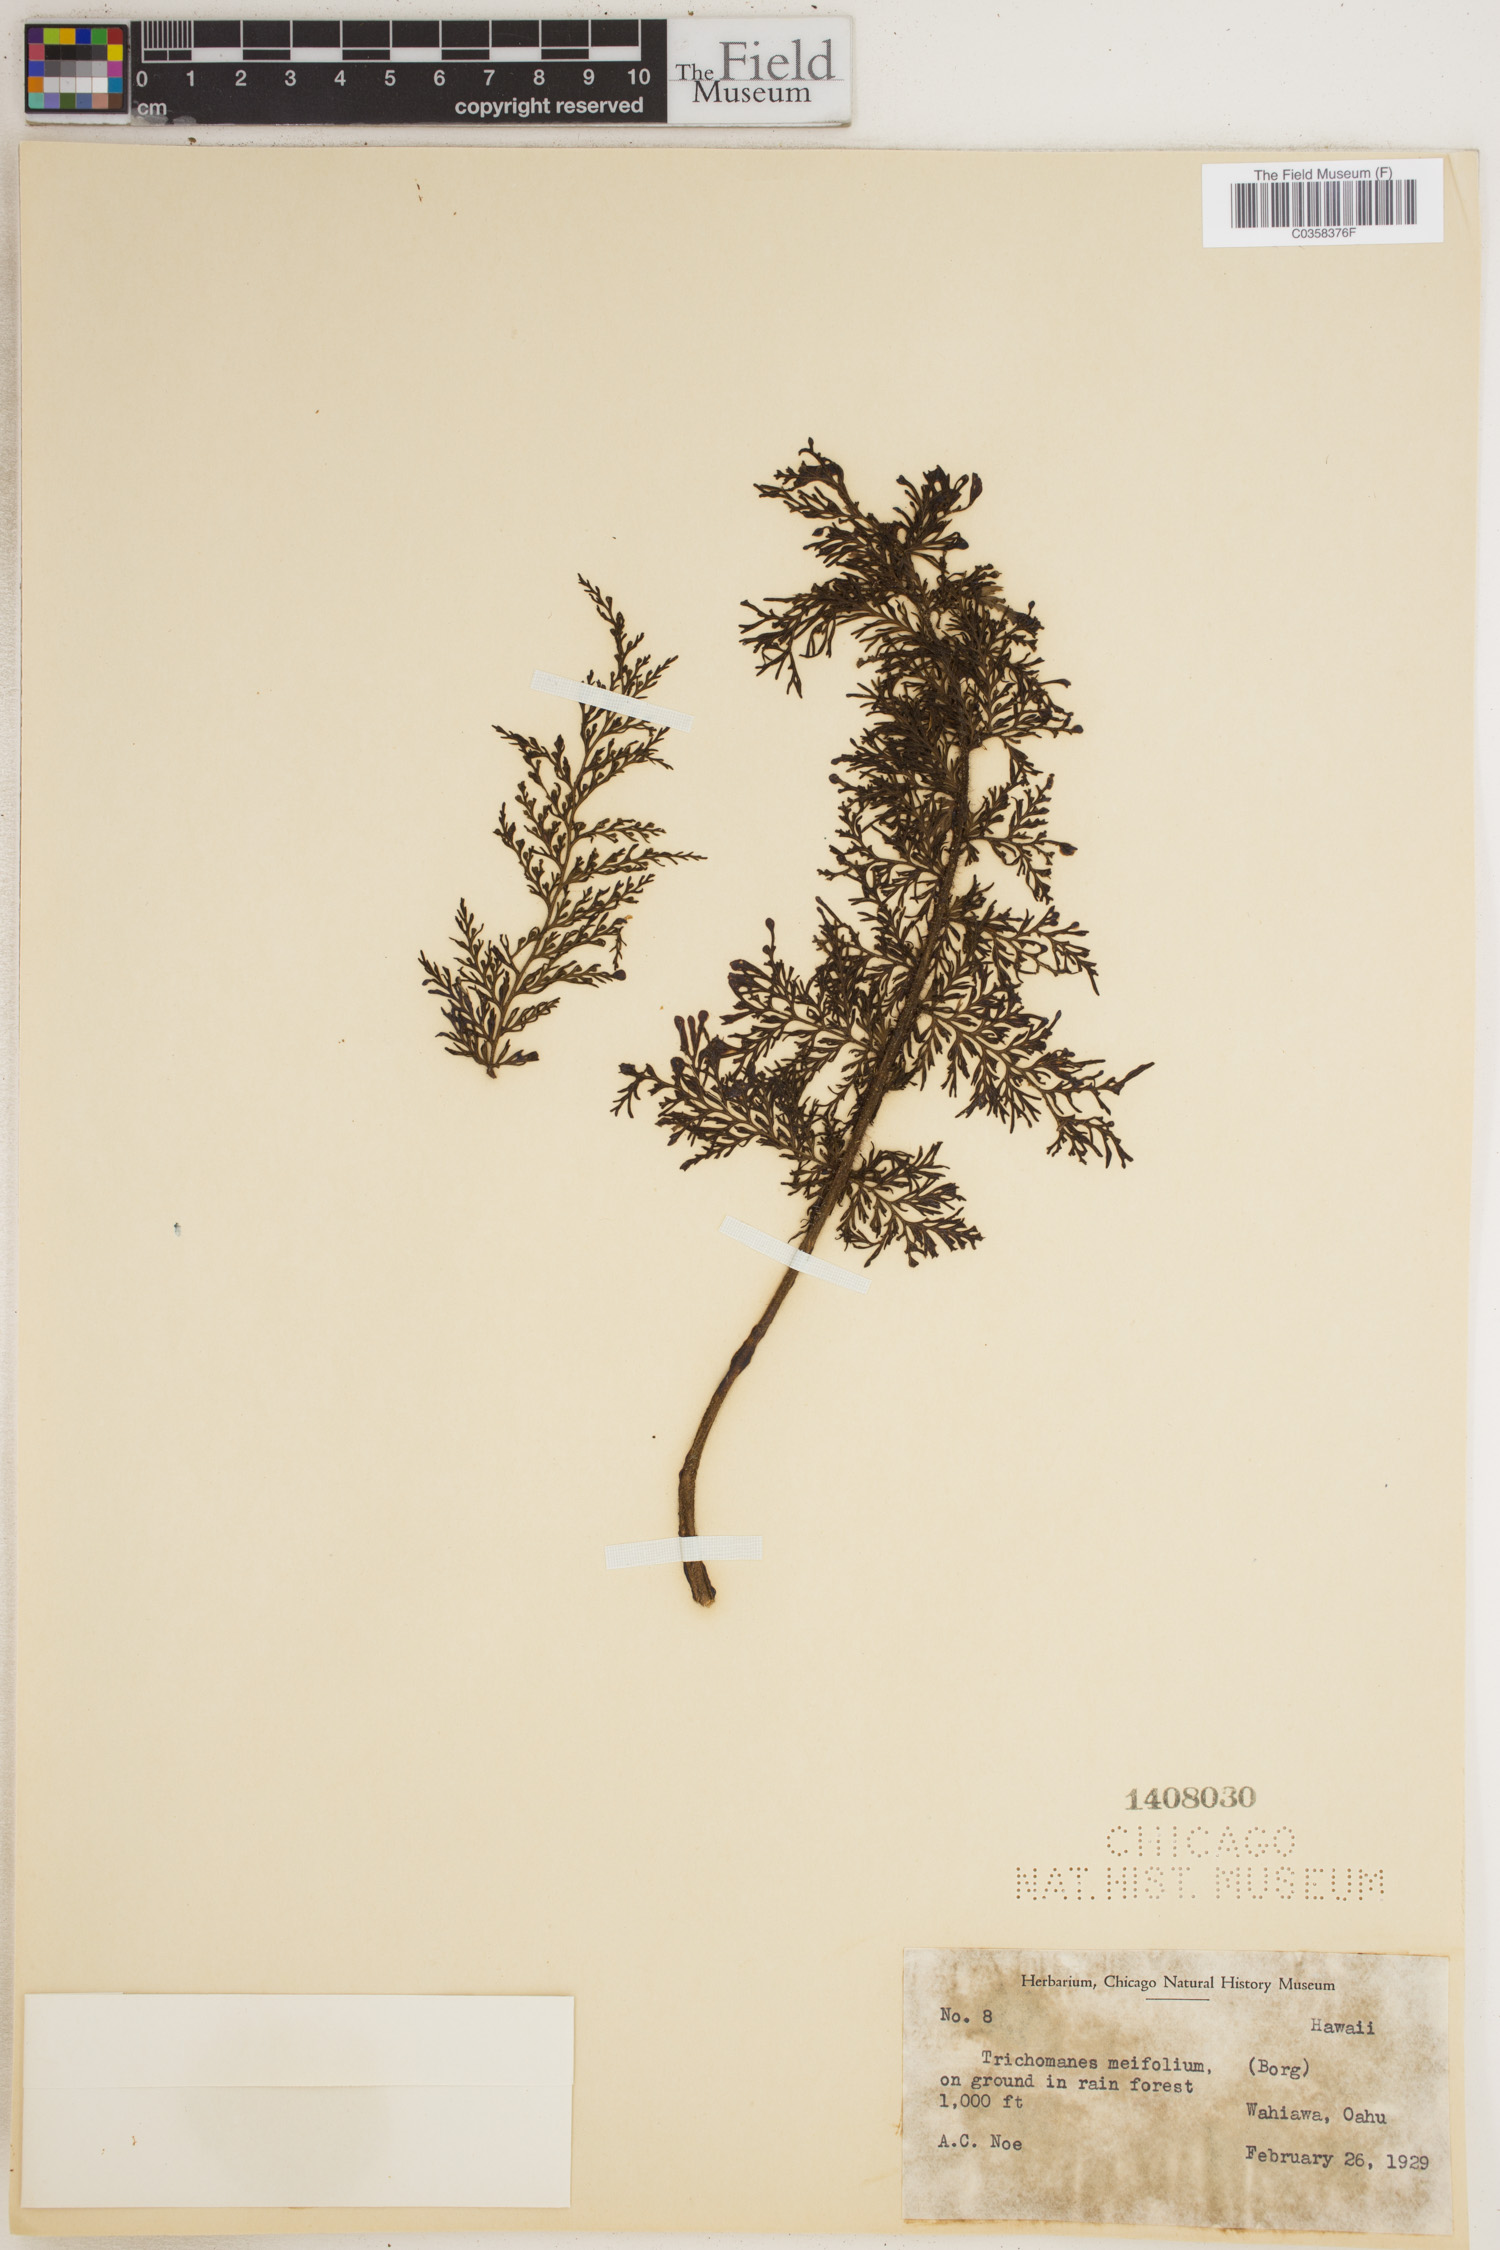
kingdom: Plantae
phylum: Tracheophyta
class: Polypodiopsida
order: Hymenophyllales
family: Hymenophyllaceae
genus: Abrodictyum
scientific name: Abrodictyum parviflorum
